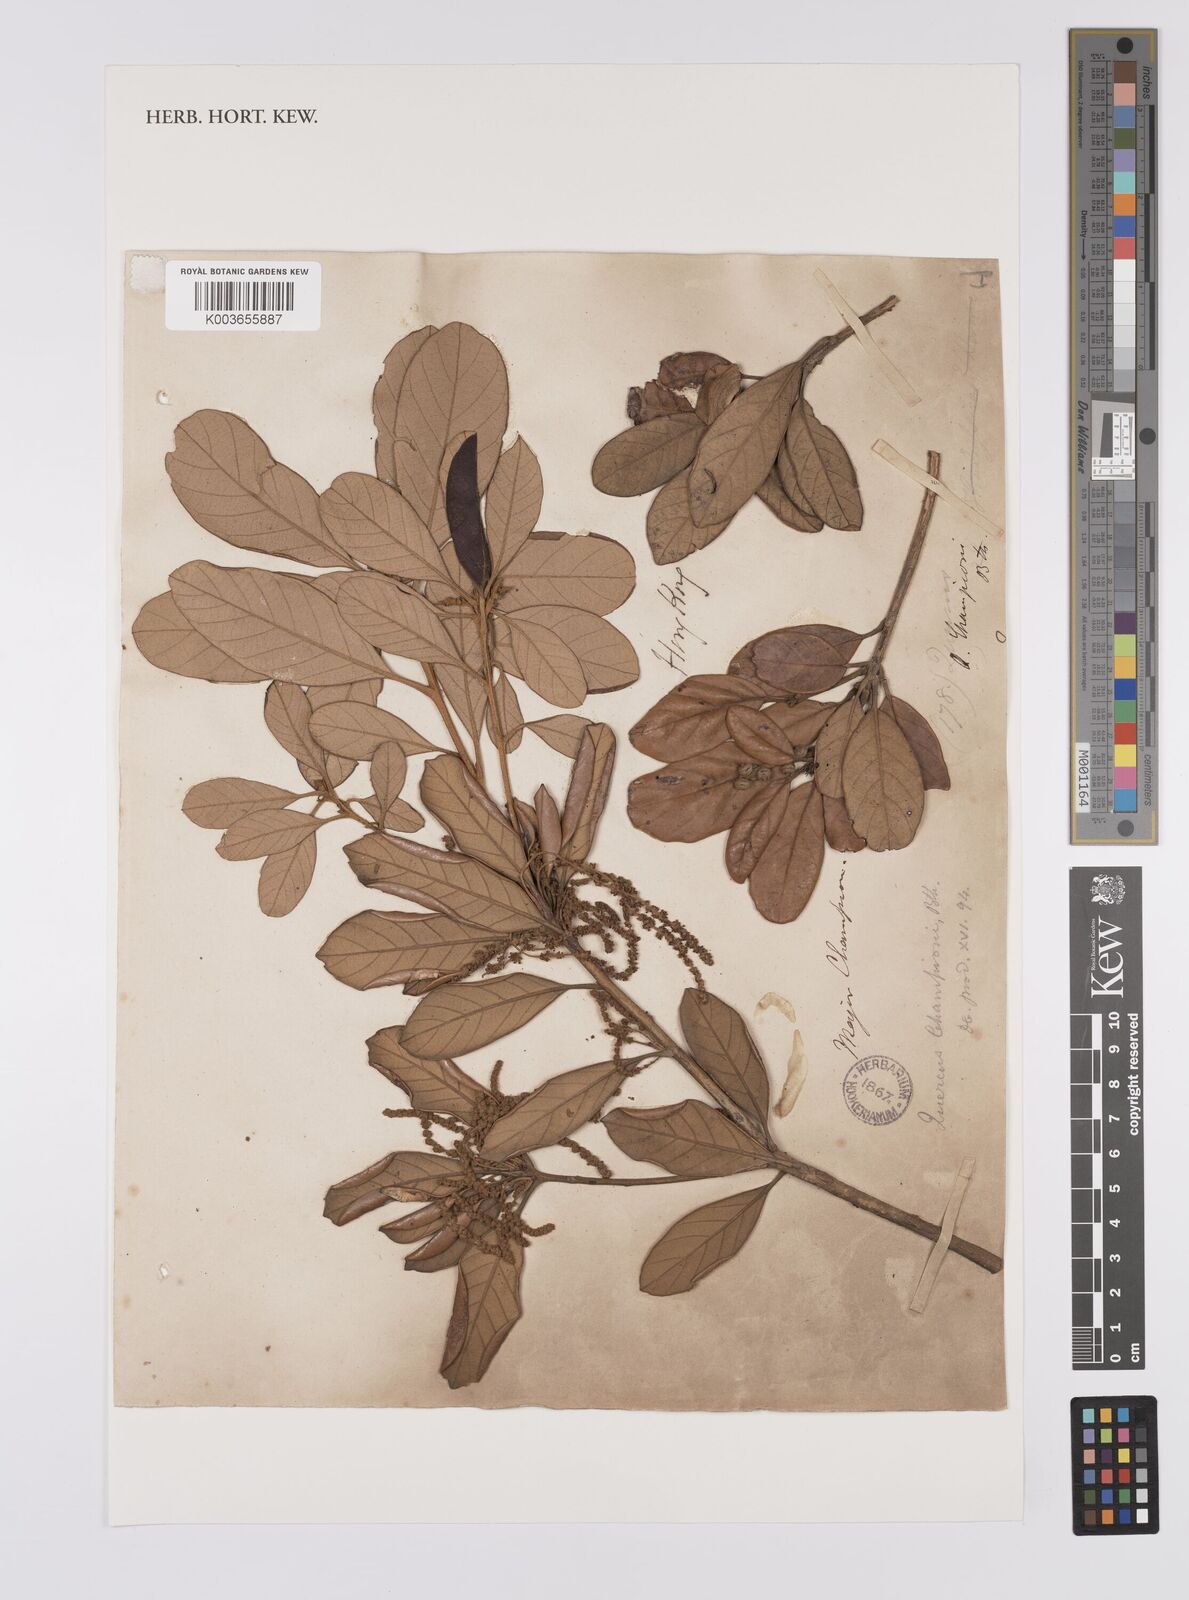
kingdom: Plantae
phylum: Tracheophyta
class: Magnoliopsida
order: Fagales
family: Fagaceae
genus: Quercus
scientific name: Quercus championii
